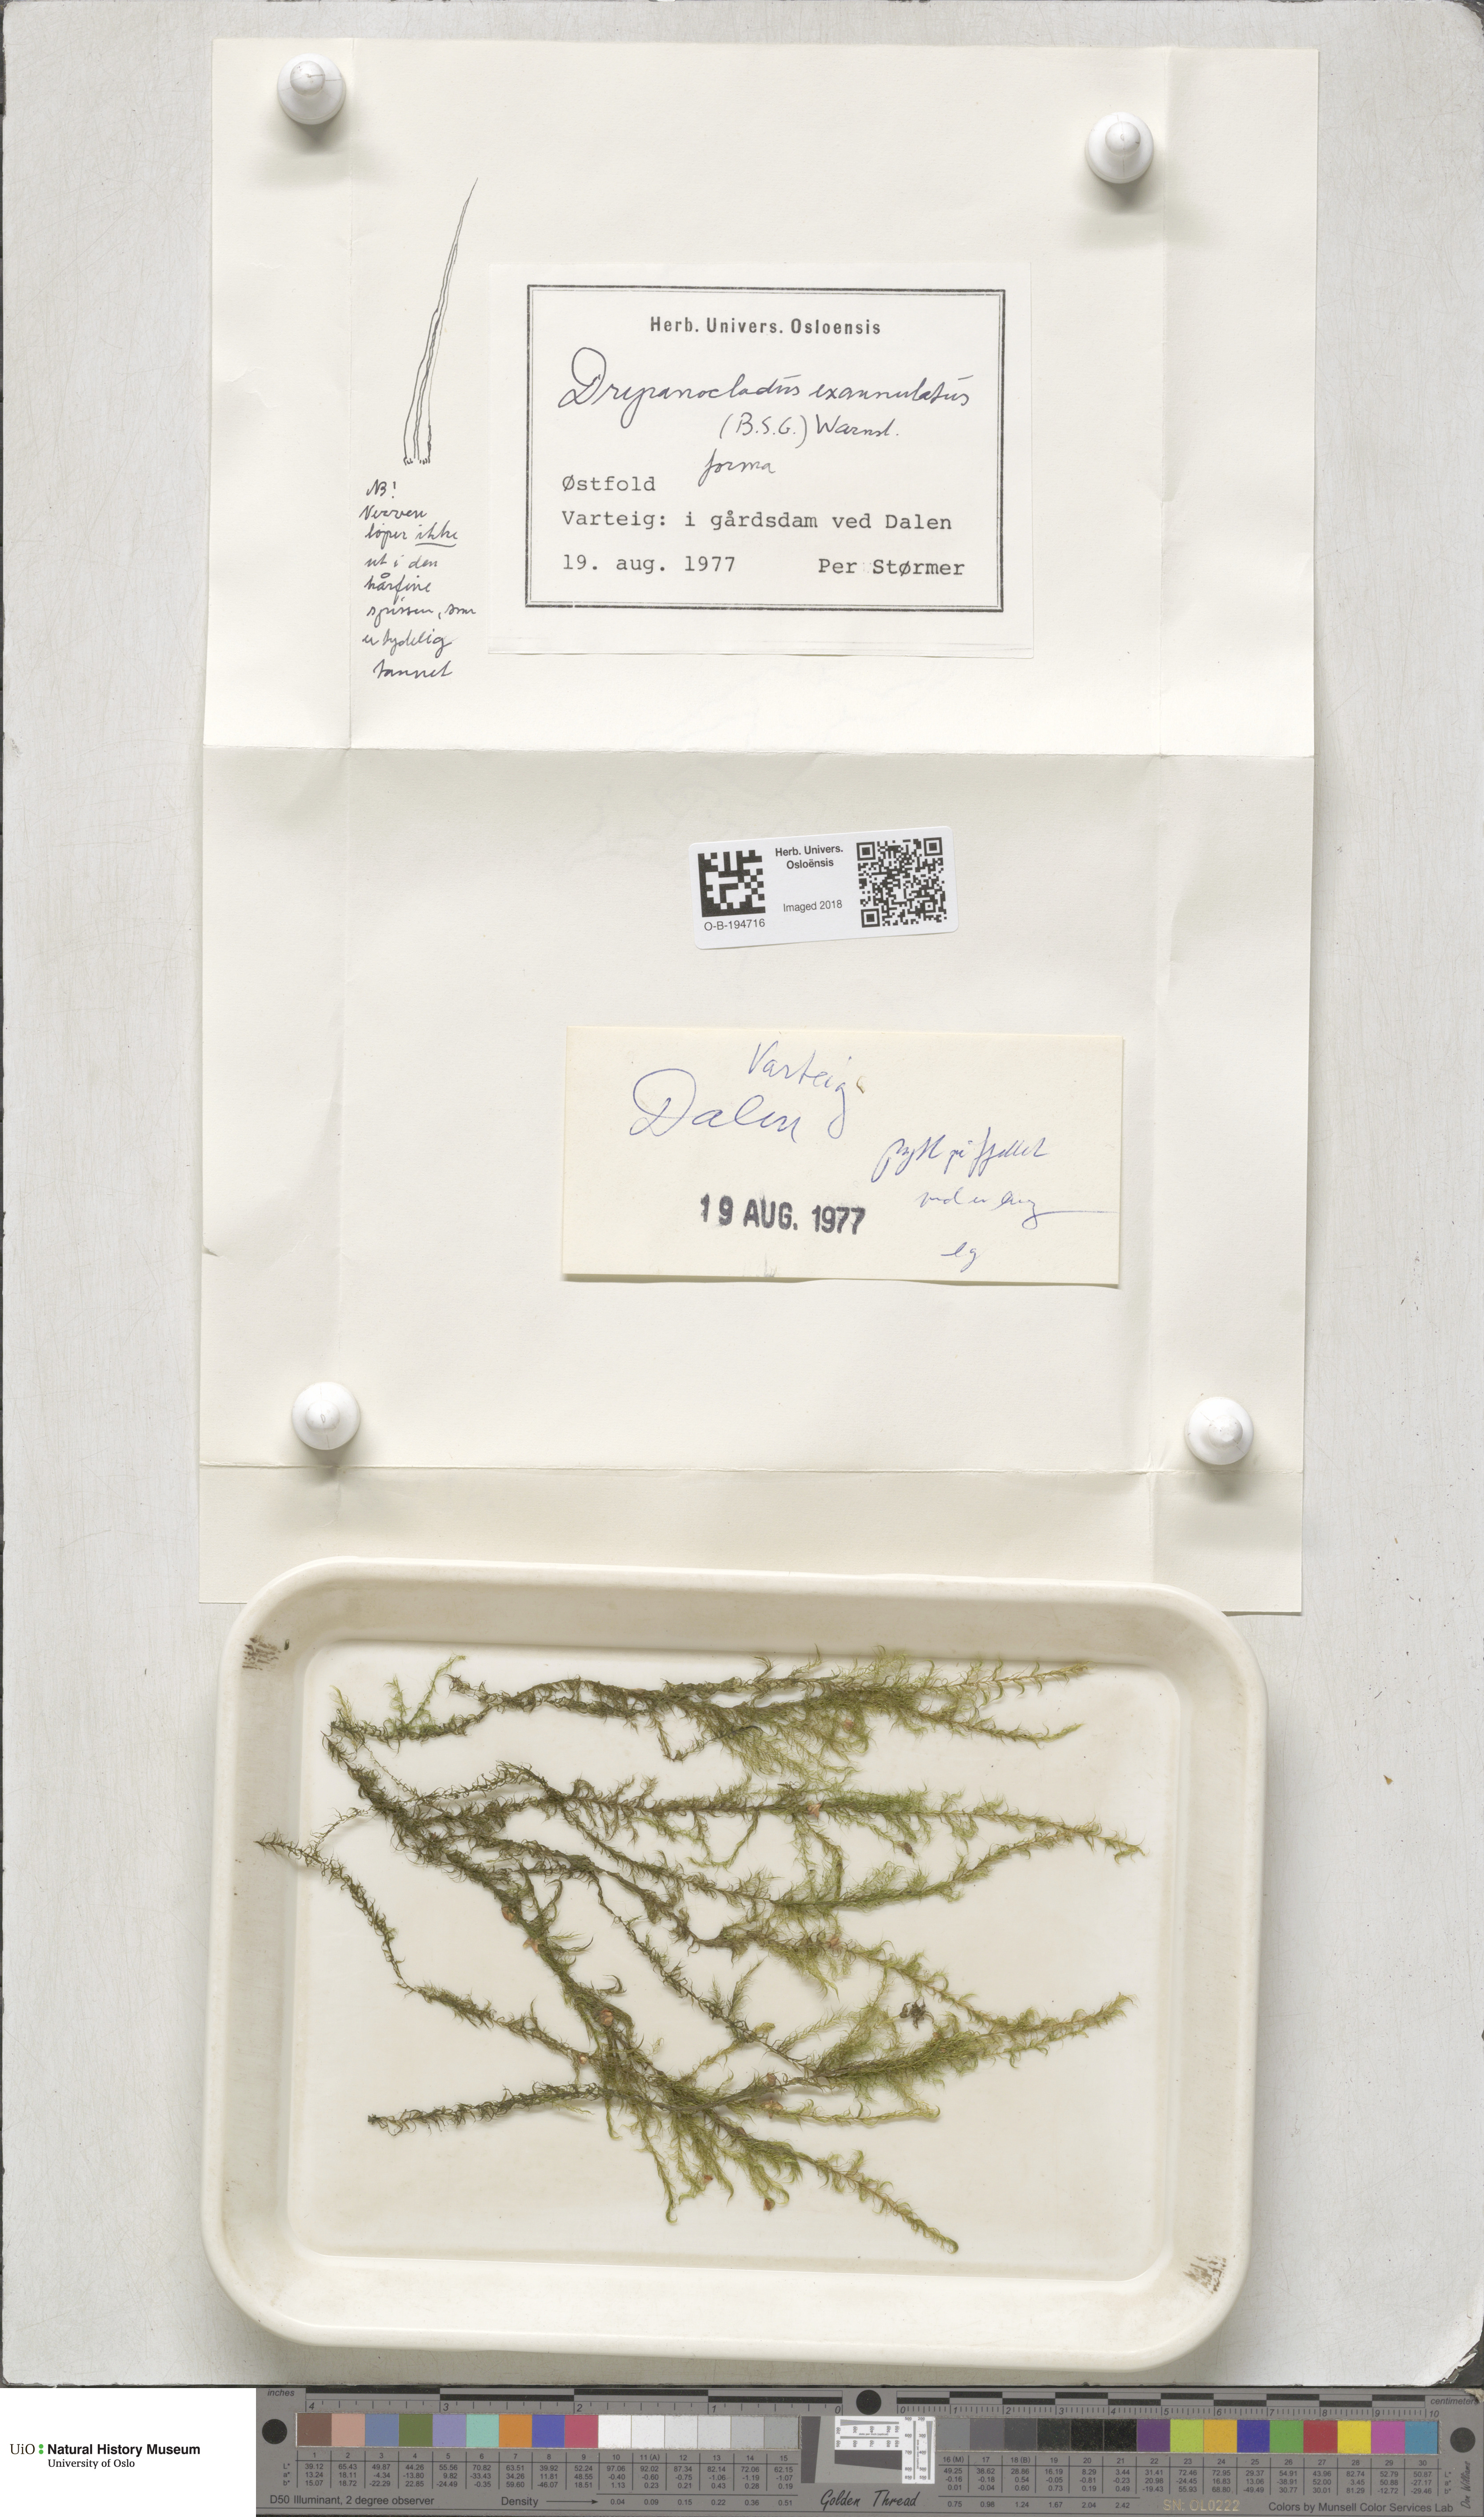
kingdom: Plantae
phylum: Bryophyta
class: Bryopsida
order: Hypnales
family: Calliergonaceae
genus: Sarmentypnum
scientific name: Sarmentypnum exannulatum
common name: Ringless spoon moss
